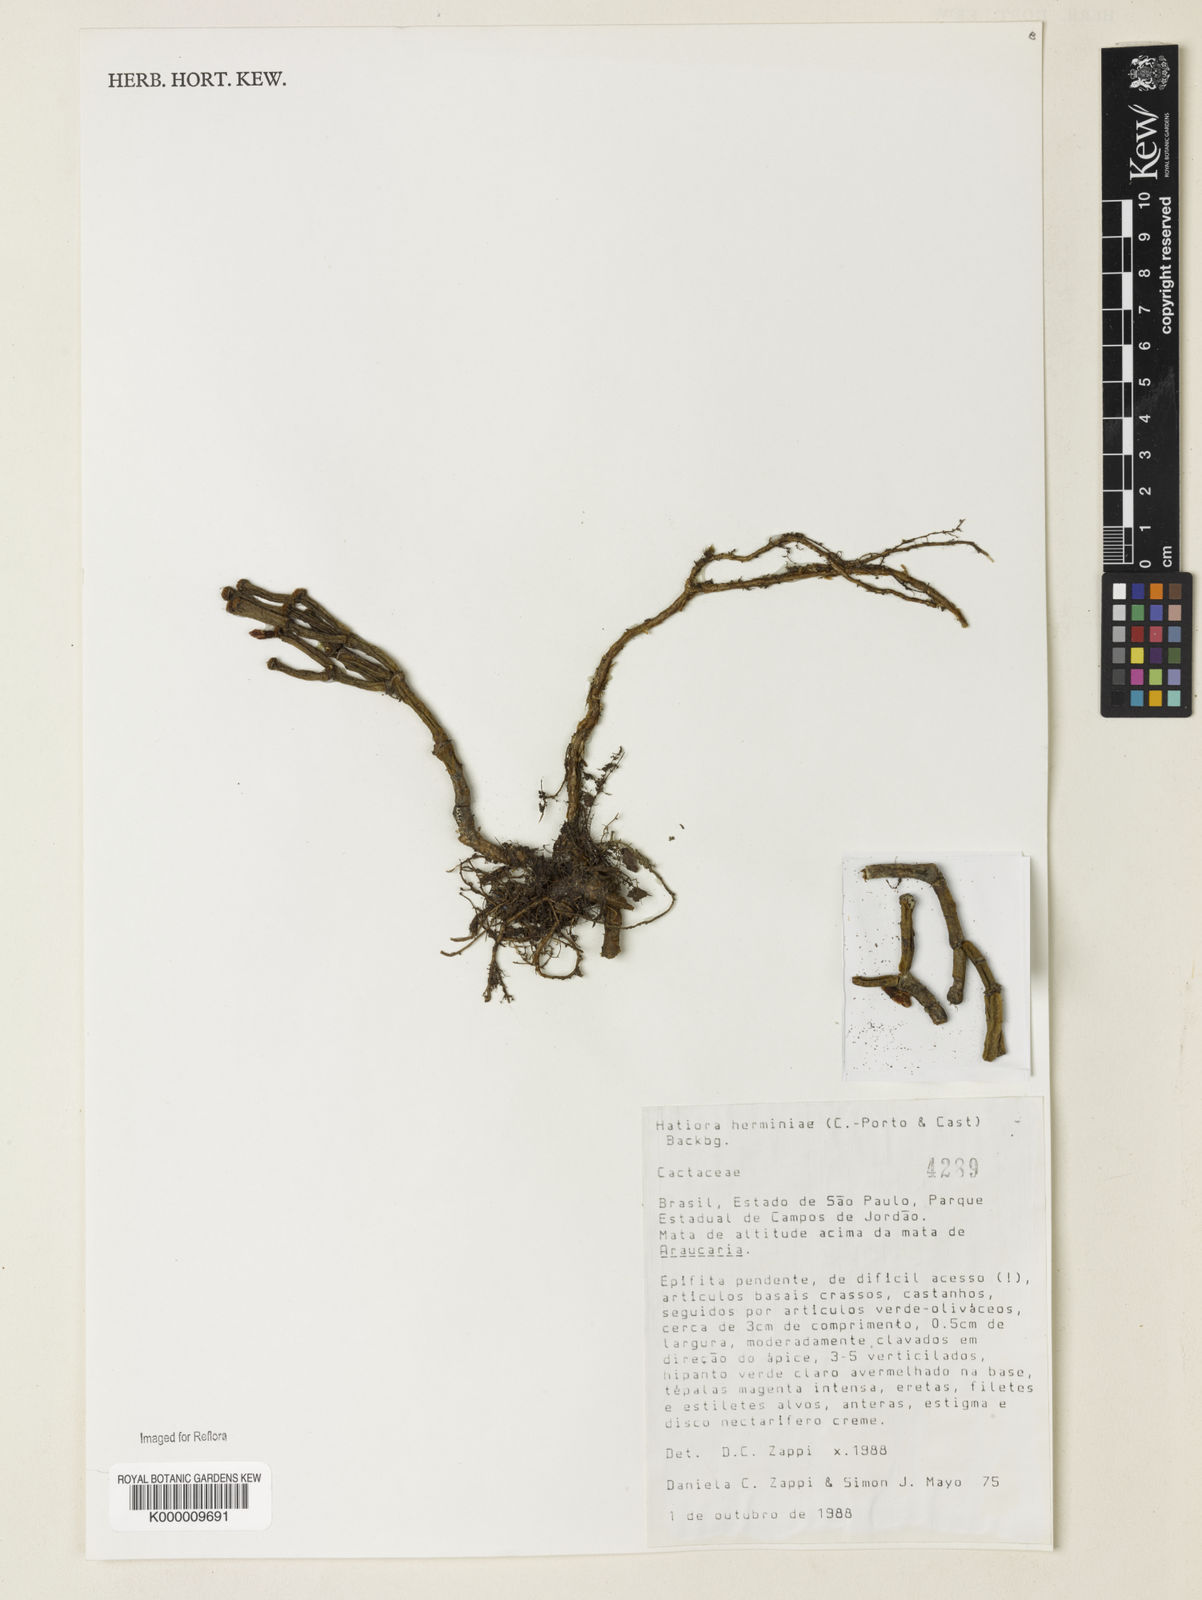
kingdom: Plantae
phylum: Tracheophyta
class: Magnoliopsida
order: Caryophyllales
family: Cactaceae
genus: Hatiora
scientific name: Hatiora
